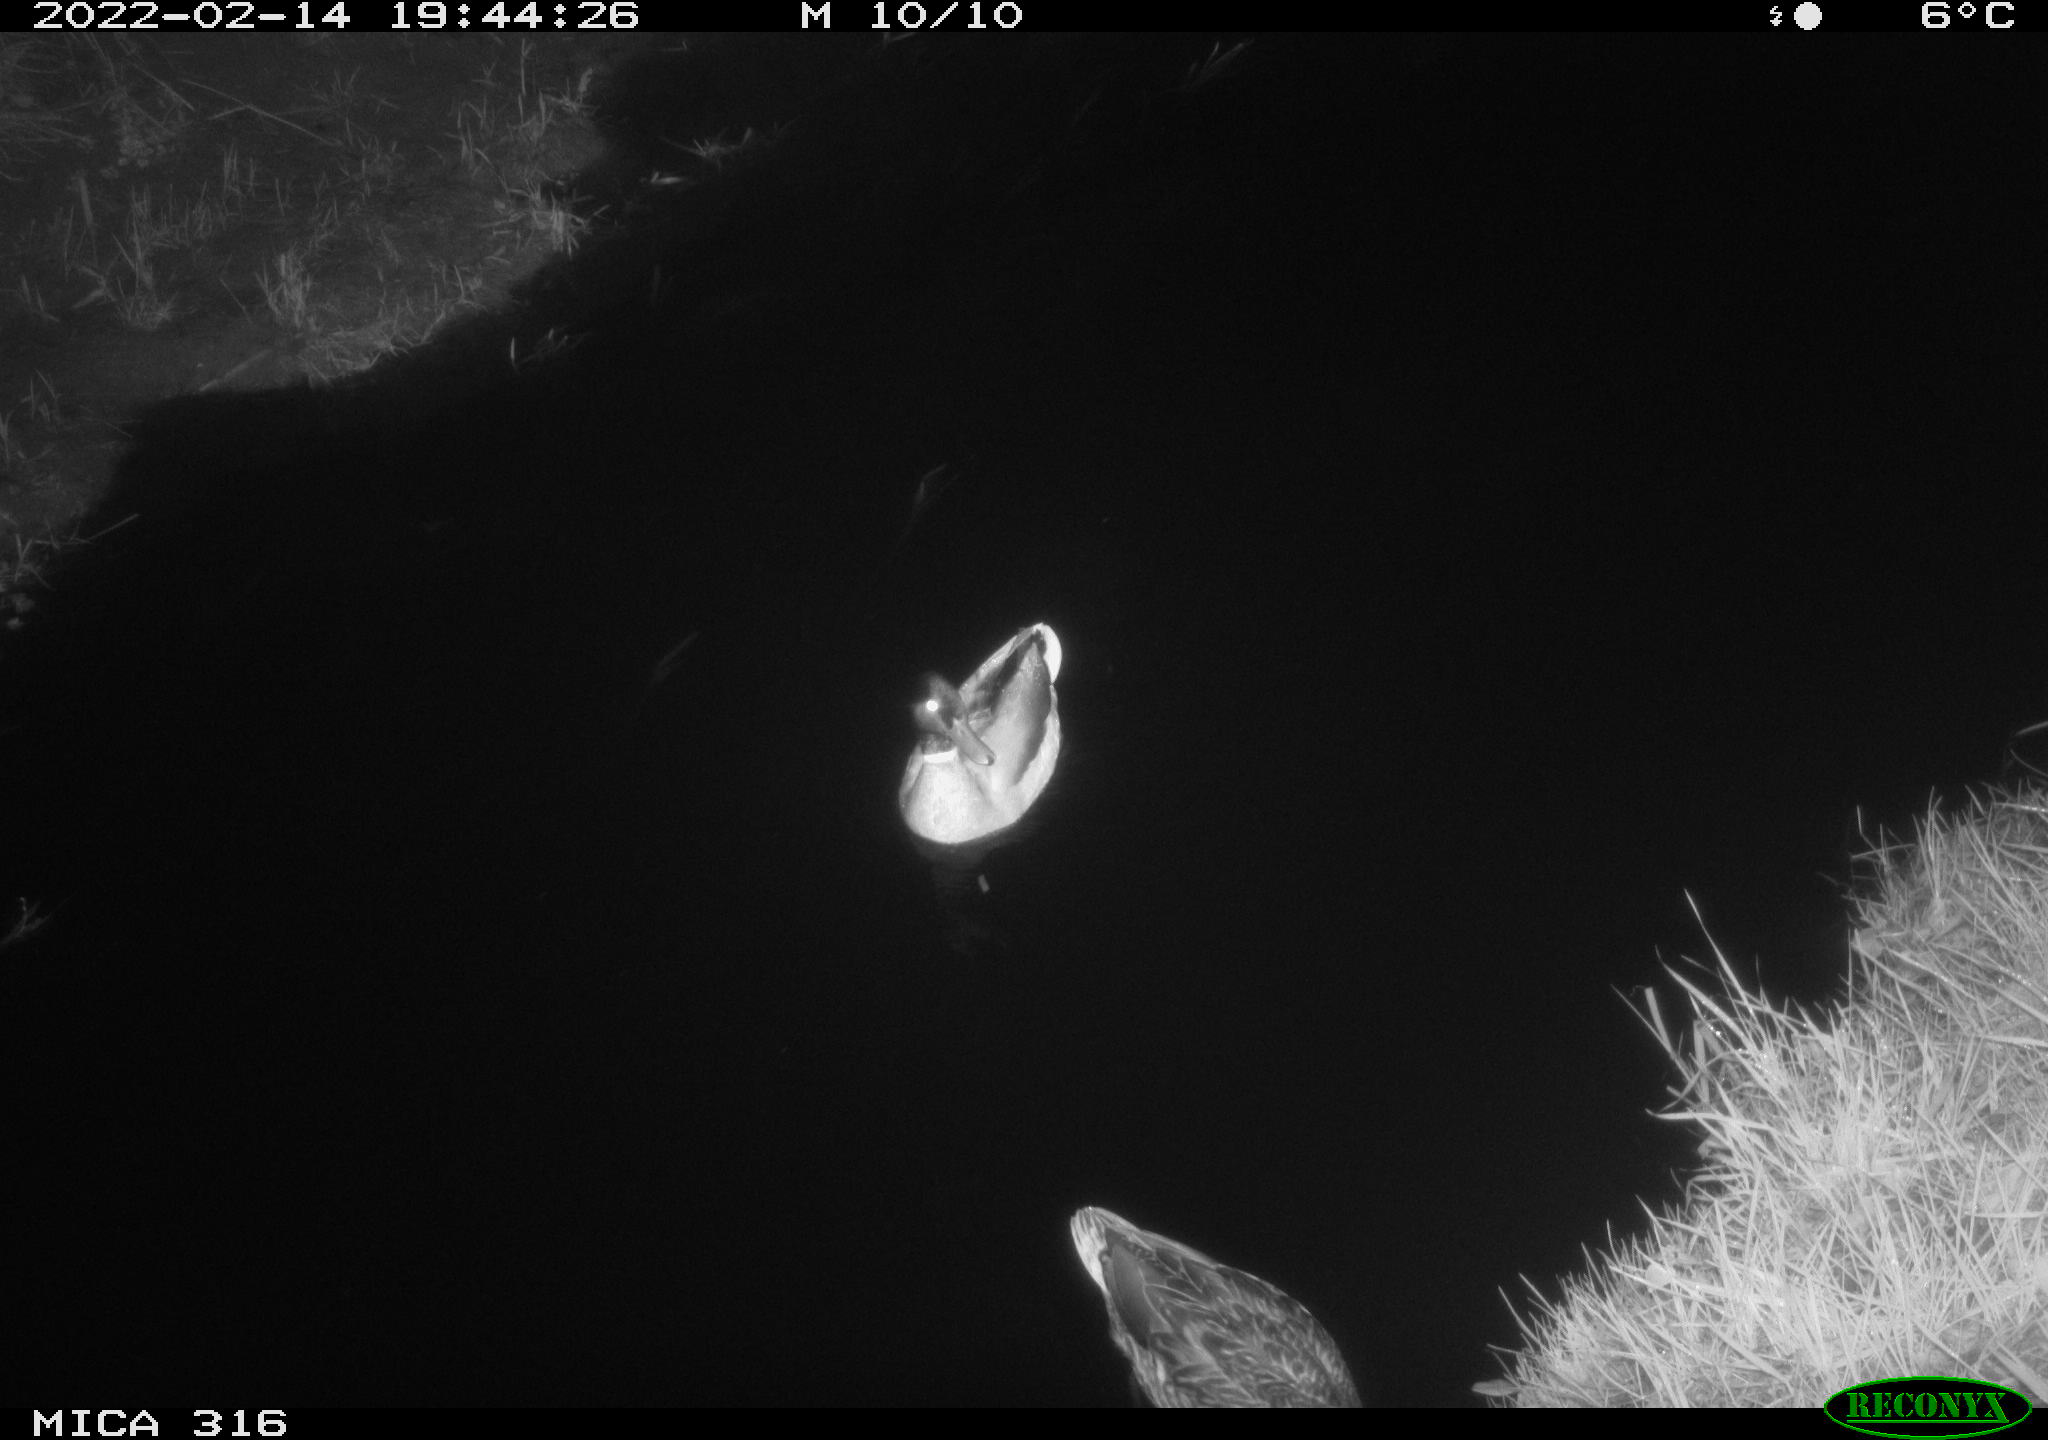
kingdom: Animalia
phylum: Chordata
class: Aves
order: Anseriformes
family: Anatidae
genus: Anas
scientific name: Anas platyrhynchos
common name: Mallard
